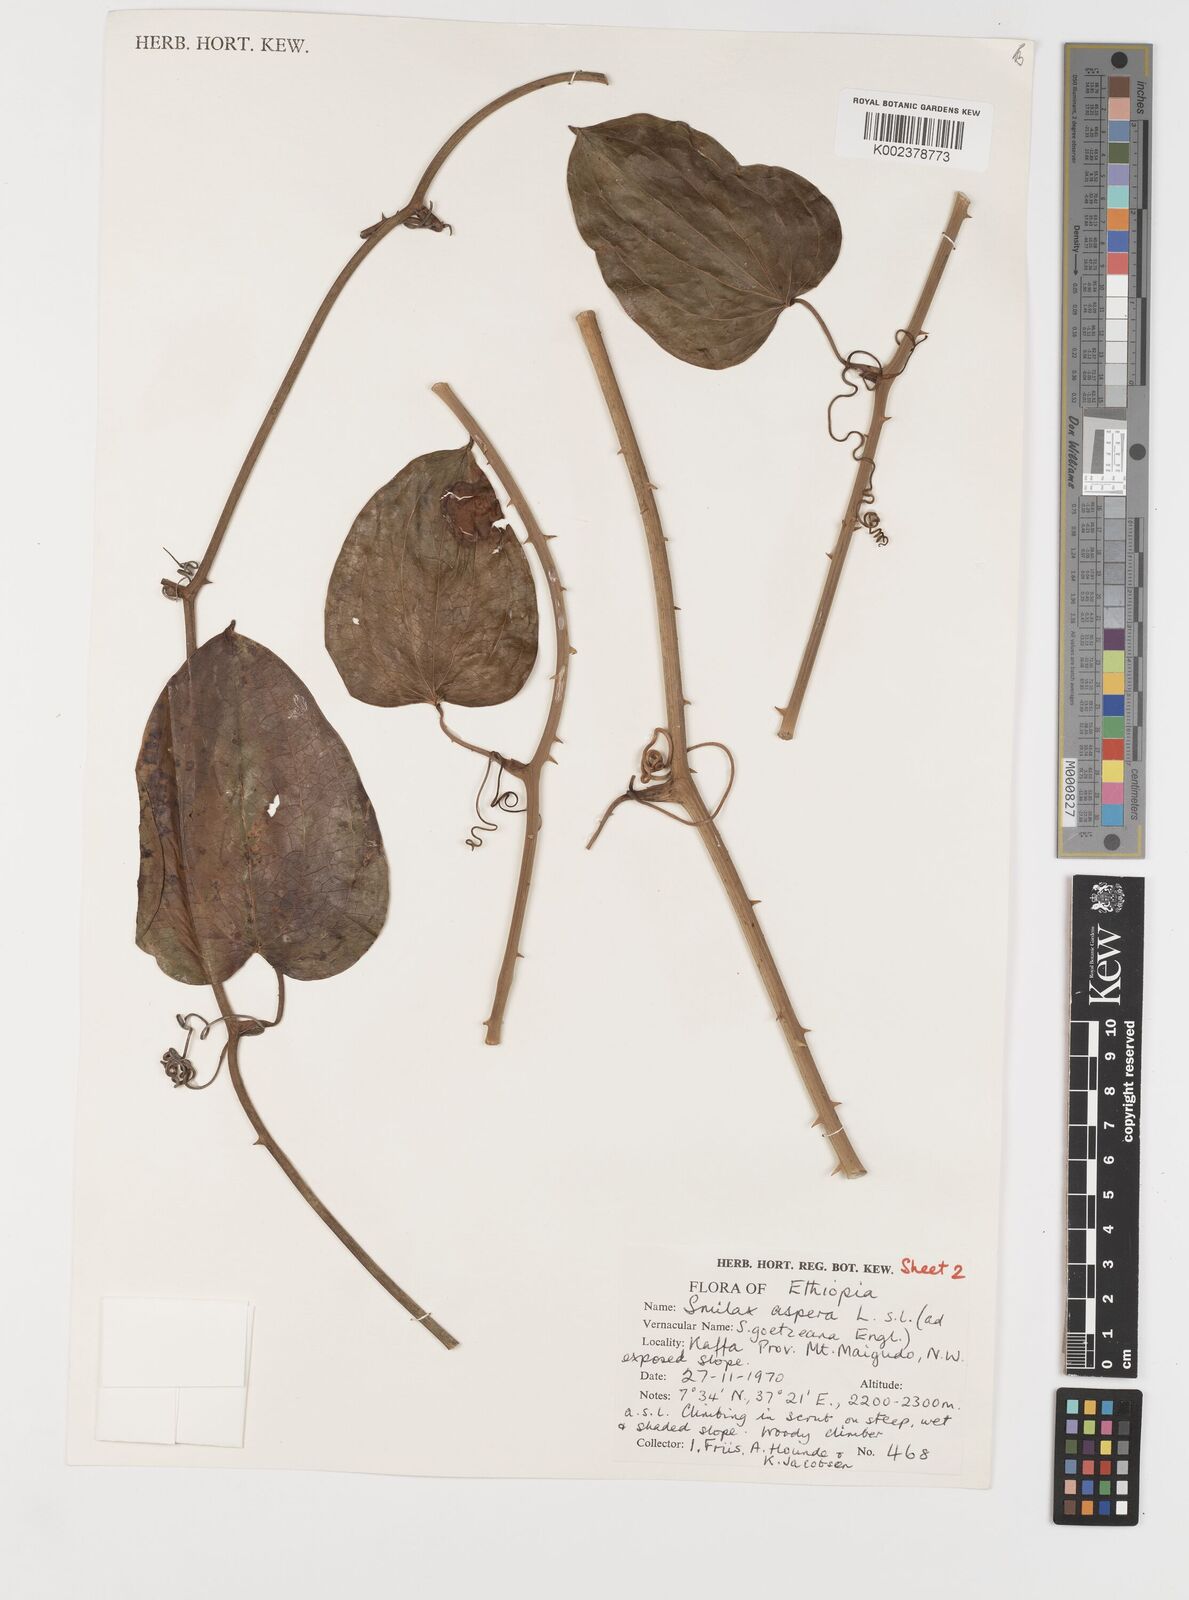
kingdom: Plantae
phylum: Tracheophyta
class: Liliopsida
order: Liliales
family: Smilacaceae
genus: Smilax
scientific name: Smilax aspera
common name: Common smilax
